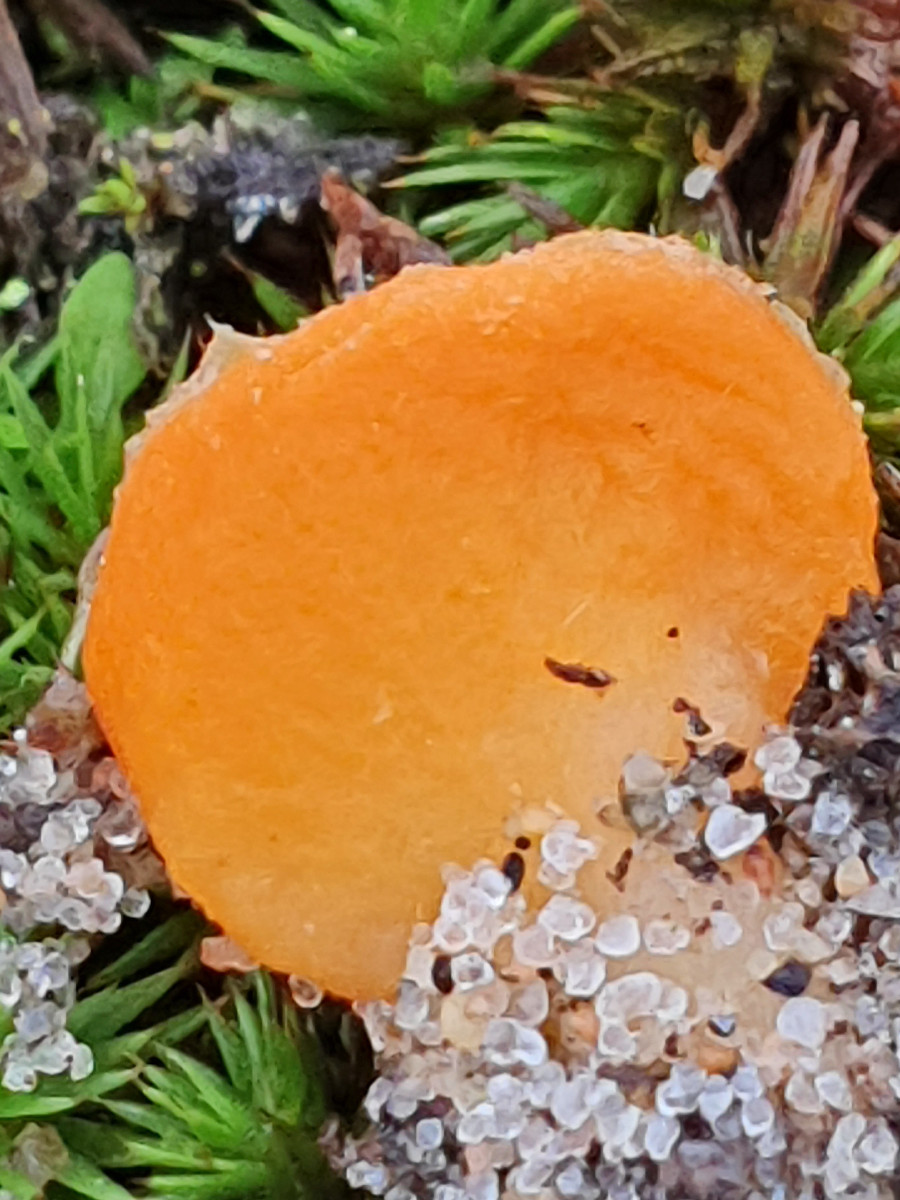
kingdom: Fungi
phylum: Ascomycota
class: Pezizomycetes
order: Pezizales
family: Pyronemataceae
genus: Neottiella
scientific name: Neottiella
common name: mosbæger
